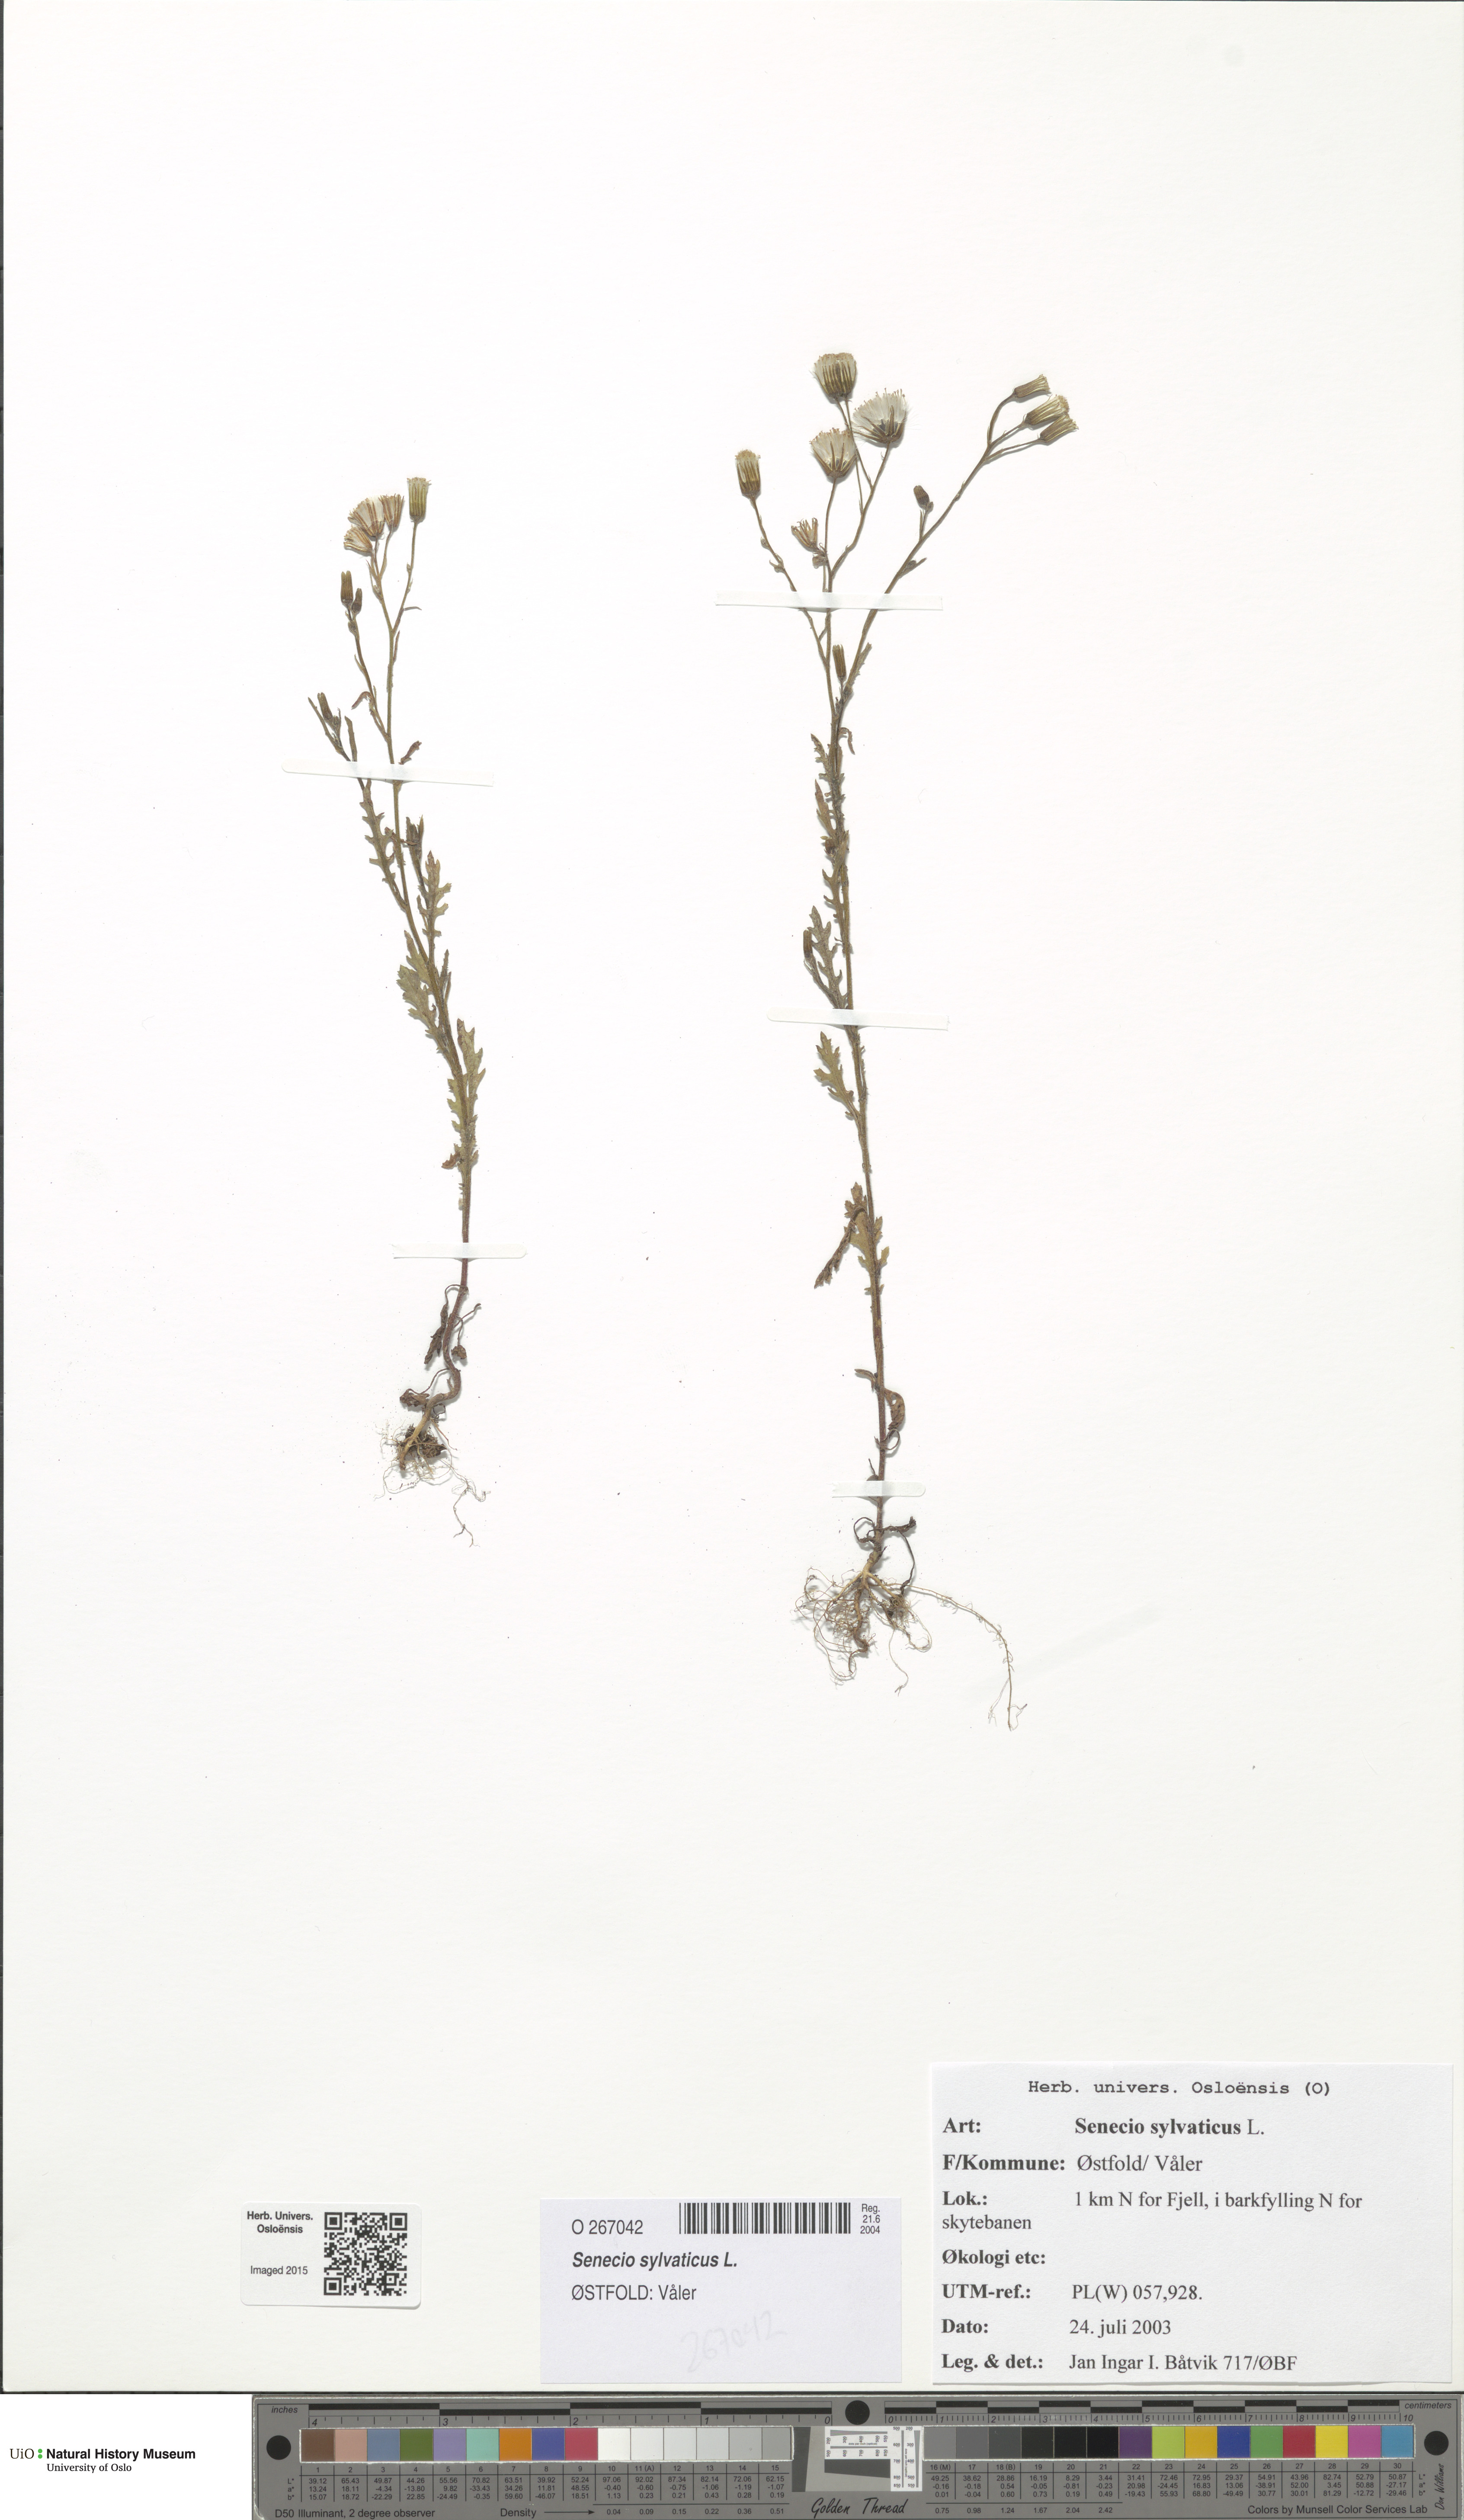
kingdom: Plantae
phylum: Tracheophyta
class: Magnoliopsida
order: Asterales
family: Asteraceae
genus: Senecio
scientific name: Senecio sylvaticus
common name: Woodland ragwort
